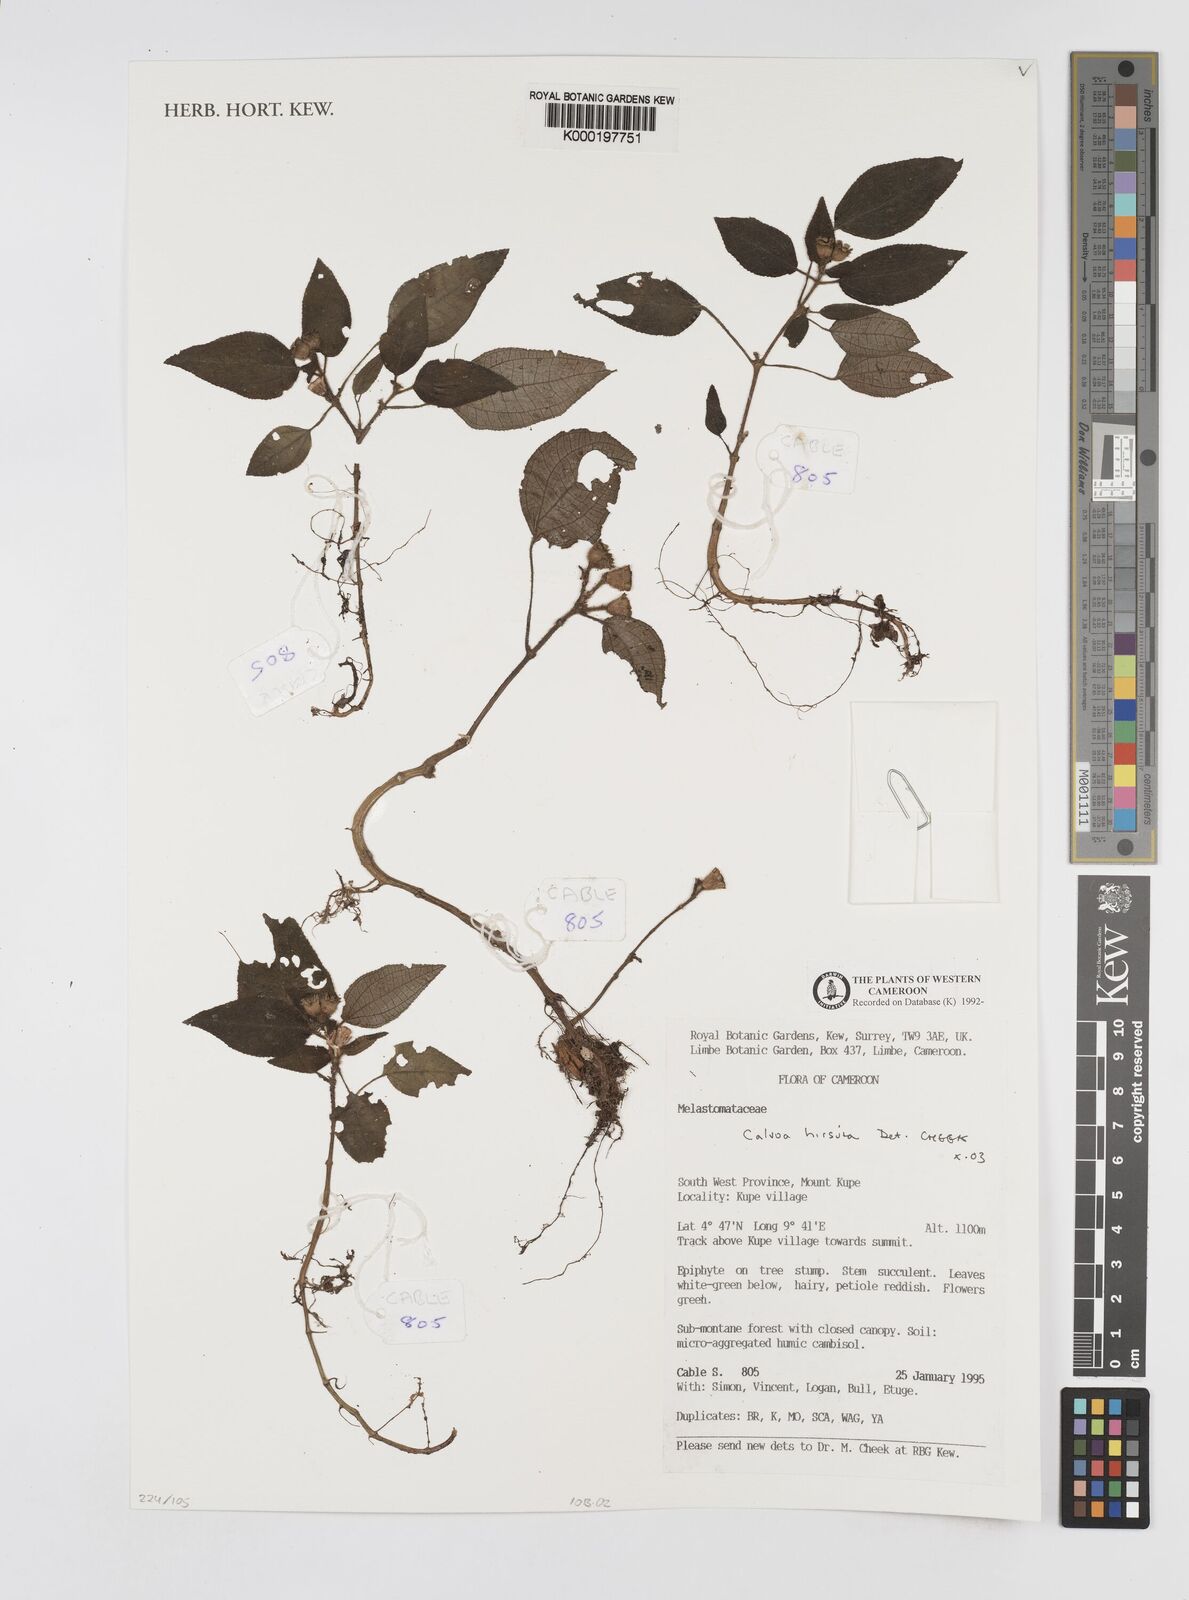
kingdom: Plantae
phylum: Tracheophyta
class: Magnoliopsida
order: Myrtales
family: Melastomataceae
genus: Calvoa
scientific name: Calvoa
